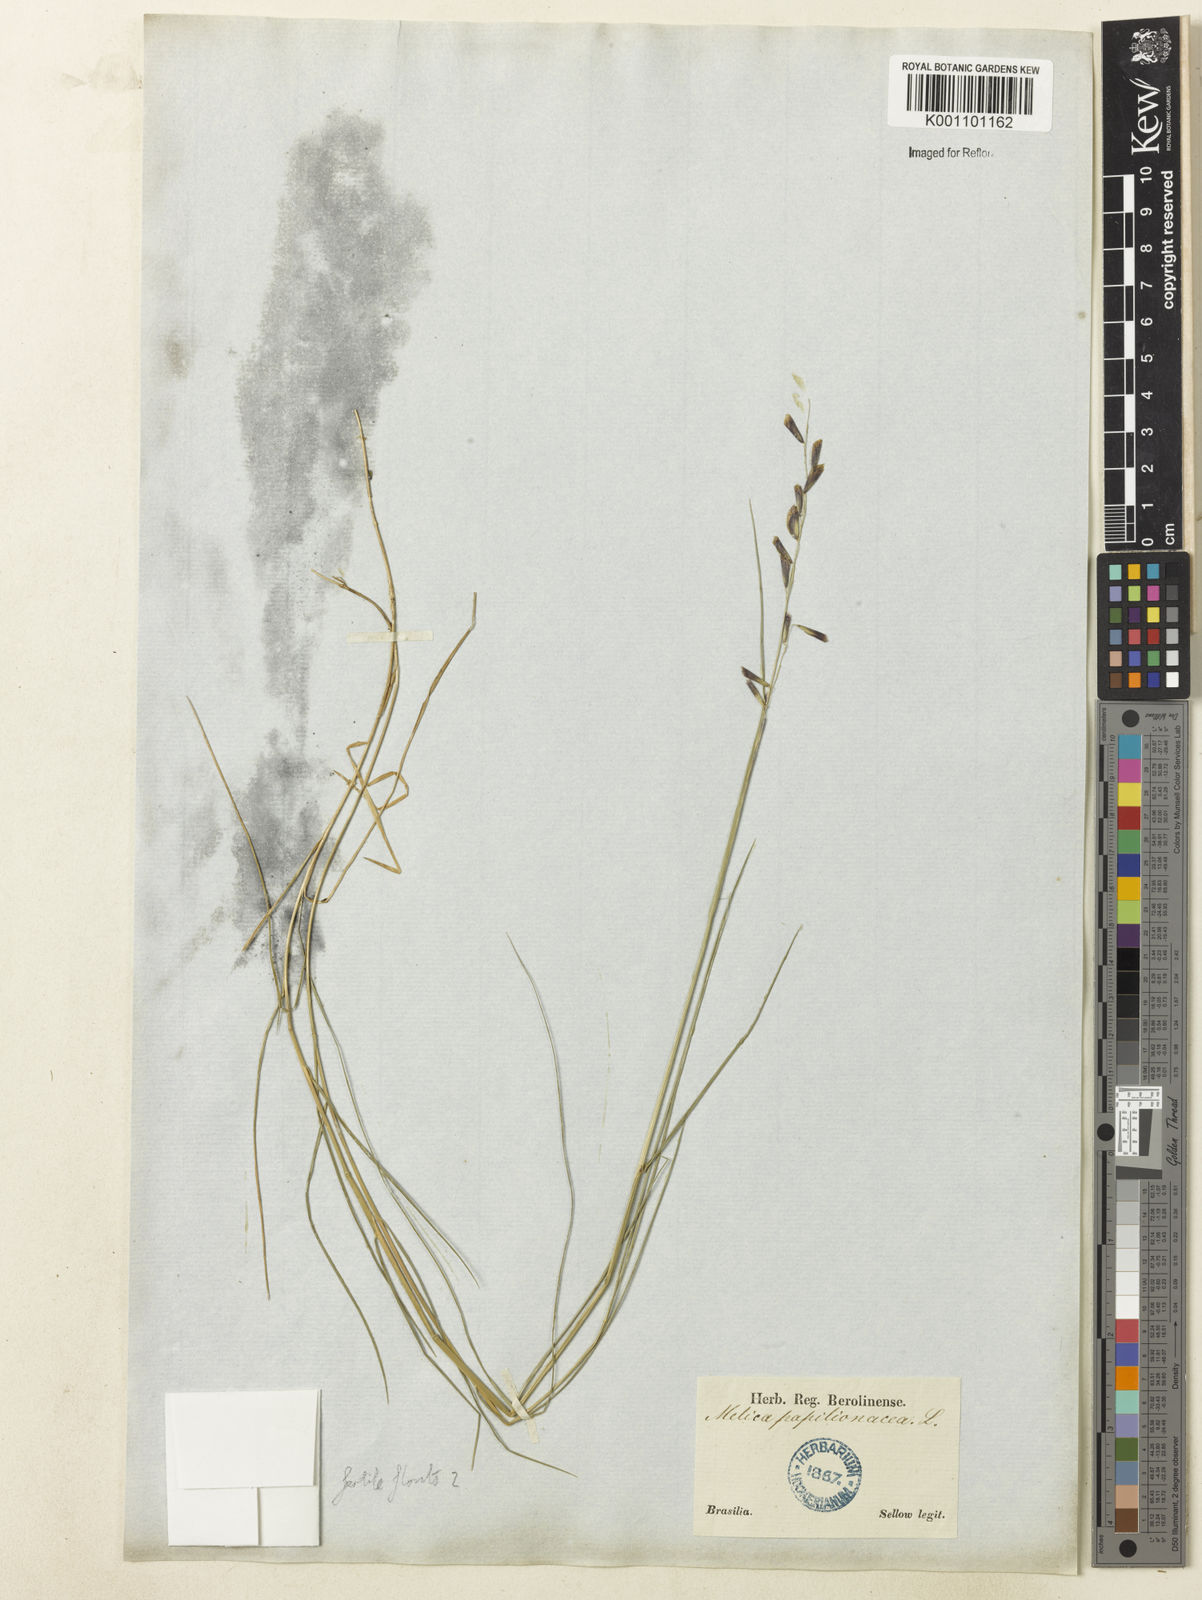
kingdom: Plantae
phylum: Tracheophyta
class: Liliopsida
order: Poales
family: Poaceae
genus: Melica
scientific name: Melica brevicoronata
